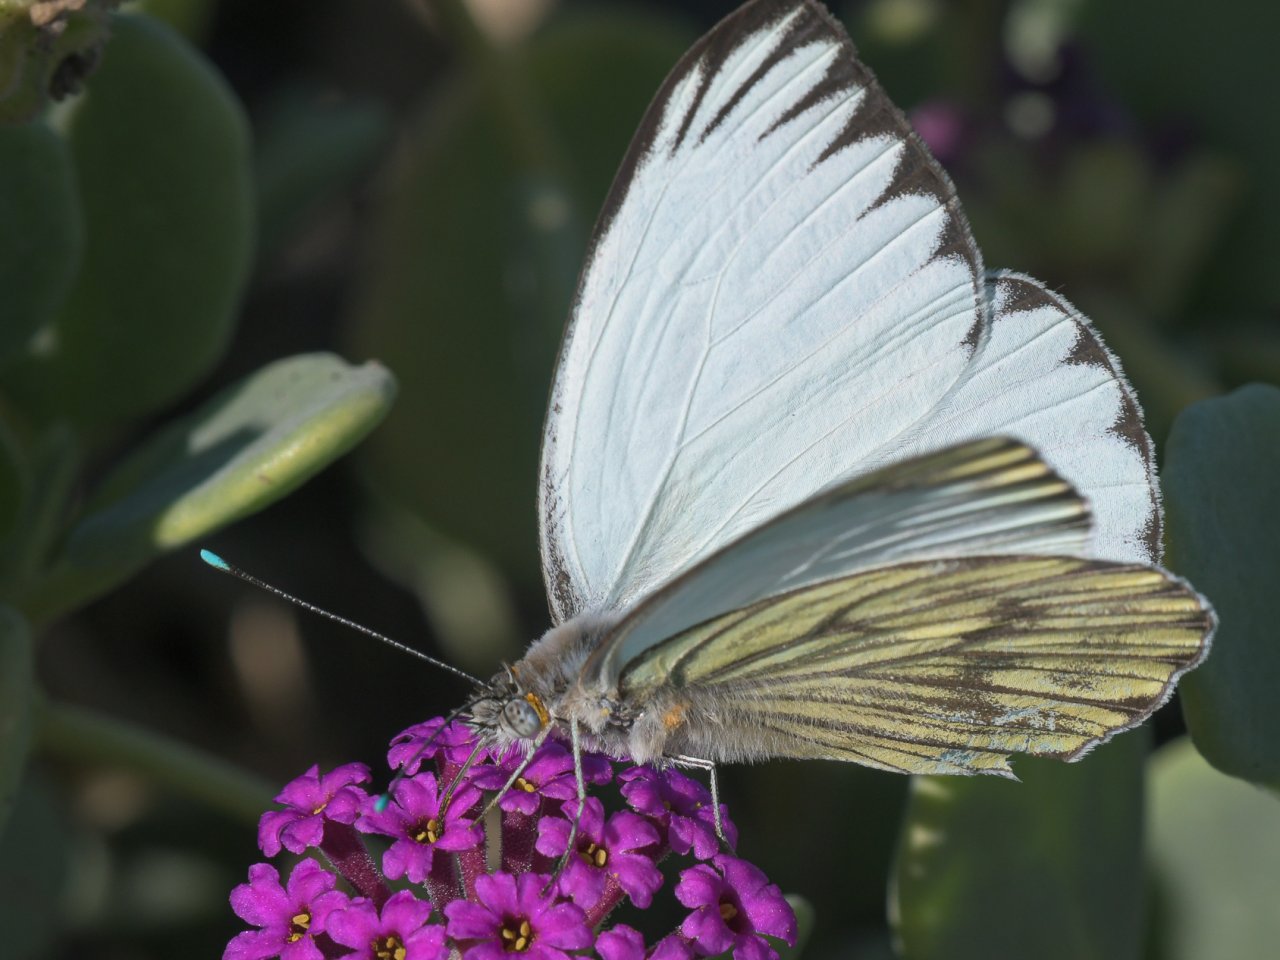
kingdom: Animalia
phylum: Arthropoda
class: Insecta
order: Lepidoptera
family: Pieridae
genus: Ascia
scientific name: Ascia monuste
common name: Great Southern White
